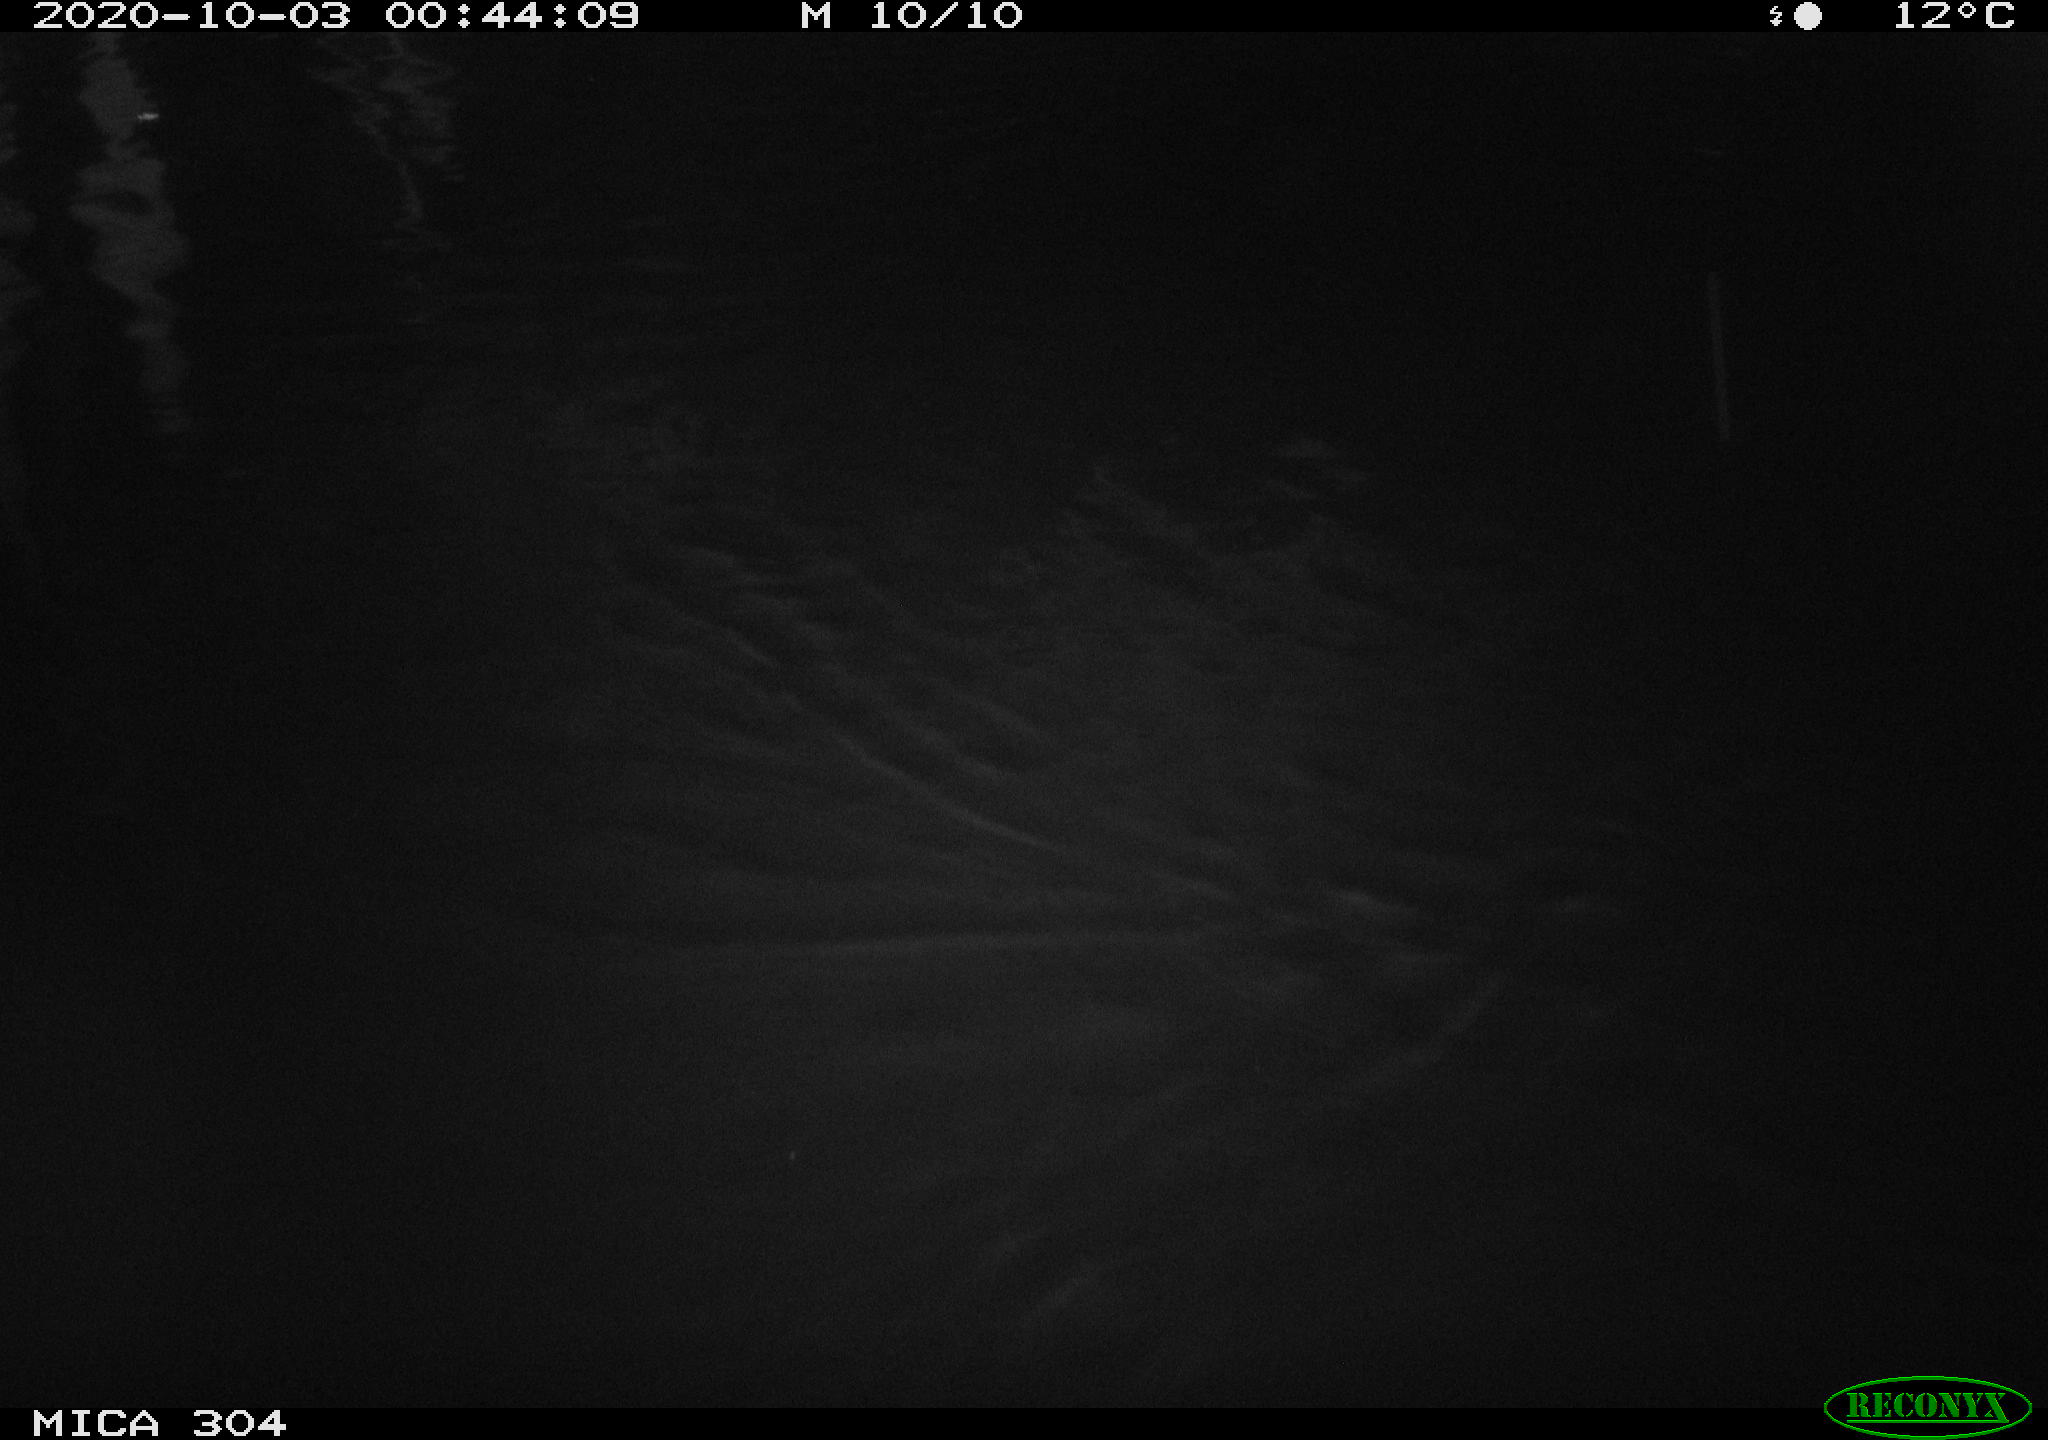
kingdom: Animalia
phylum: Chordata
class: Mammalia
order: Rodentia
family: Muridae
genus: Rattus
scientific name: Rattus norvegicus
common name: Brown rat
